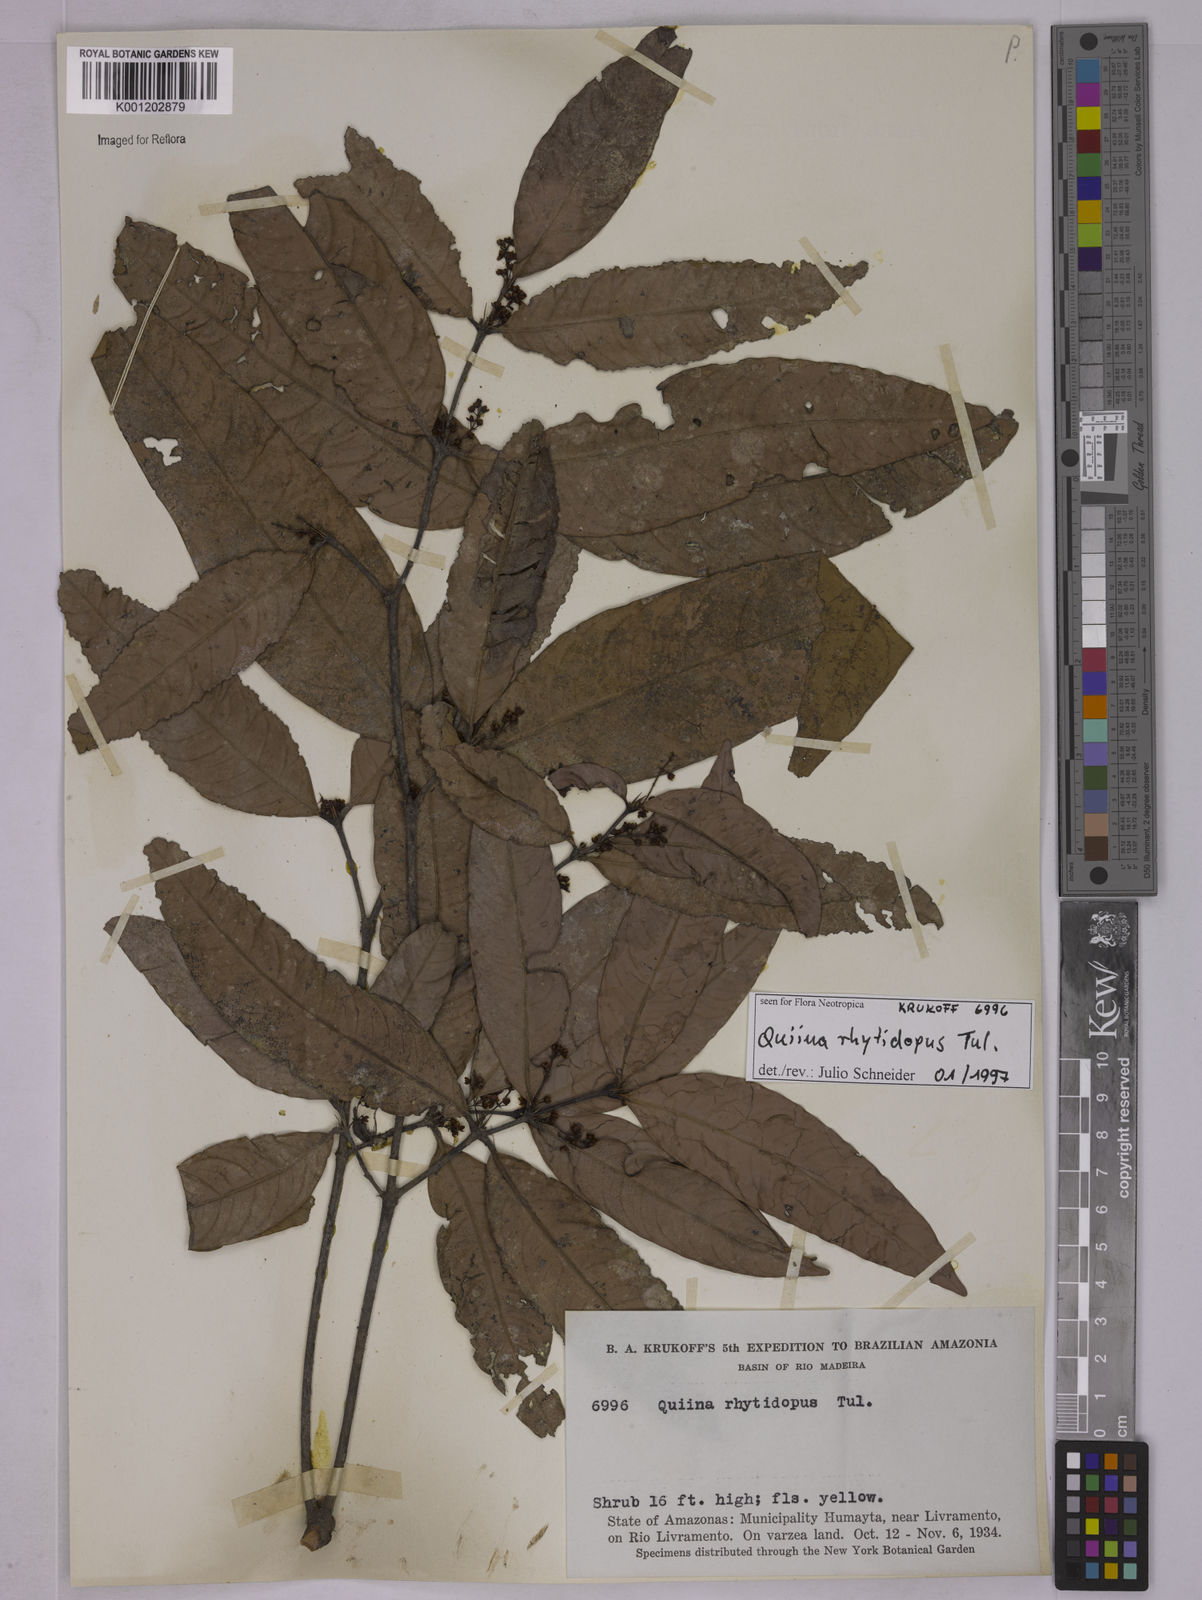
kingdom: Plantae
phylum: Tracheophyta
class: Magnoliopsida
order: Malpighiales
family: Quiinaceae
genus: Quiina
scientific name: Quiina rhytidopus
